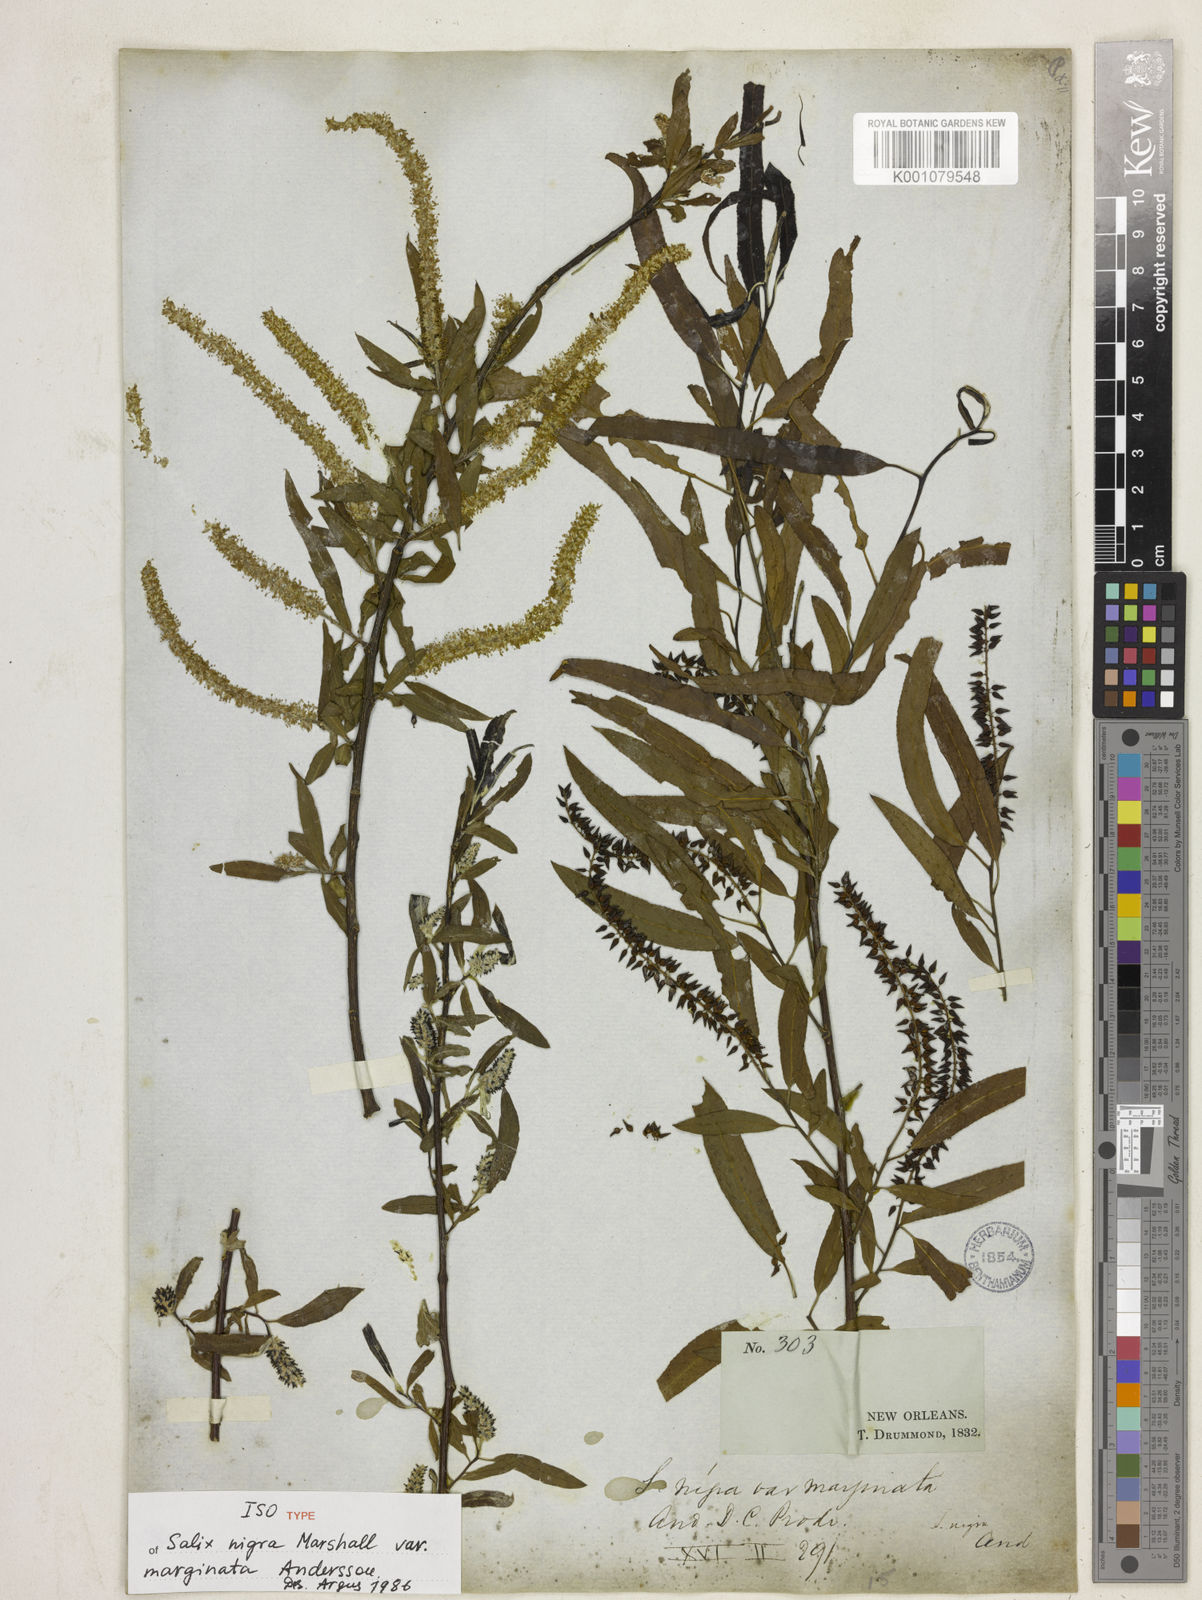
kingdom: Plantae
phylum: Tracheophyta
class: Magnoliopsida
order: Malpighiales
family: Salicaceae
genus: Salix
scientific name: Salix caroliniana
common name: Carolina willow
